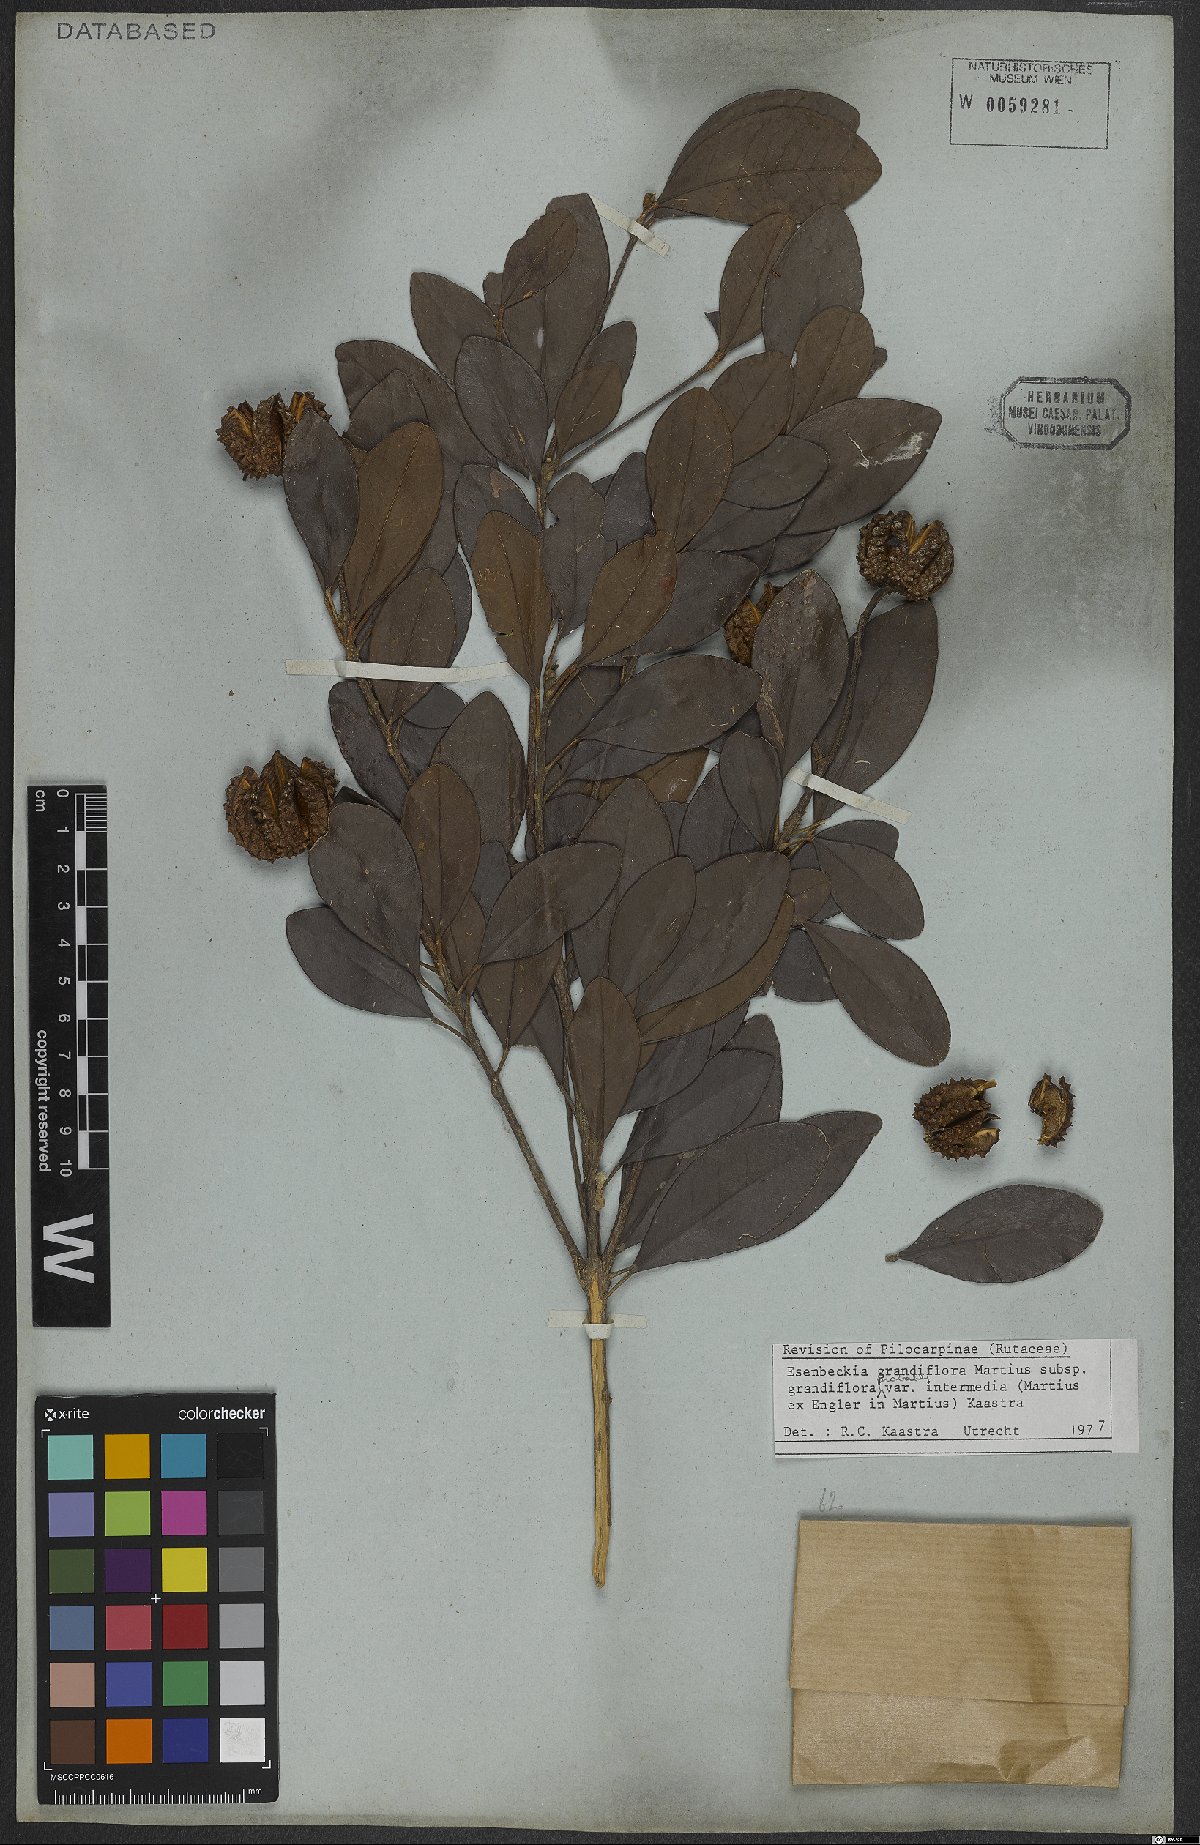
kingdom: Plantae
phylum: Tracheophyta
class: Magnoliopsida
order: Sapindales
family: Rutaceae
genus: Esenbeckia
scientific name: Esenbeckia grandiflora
